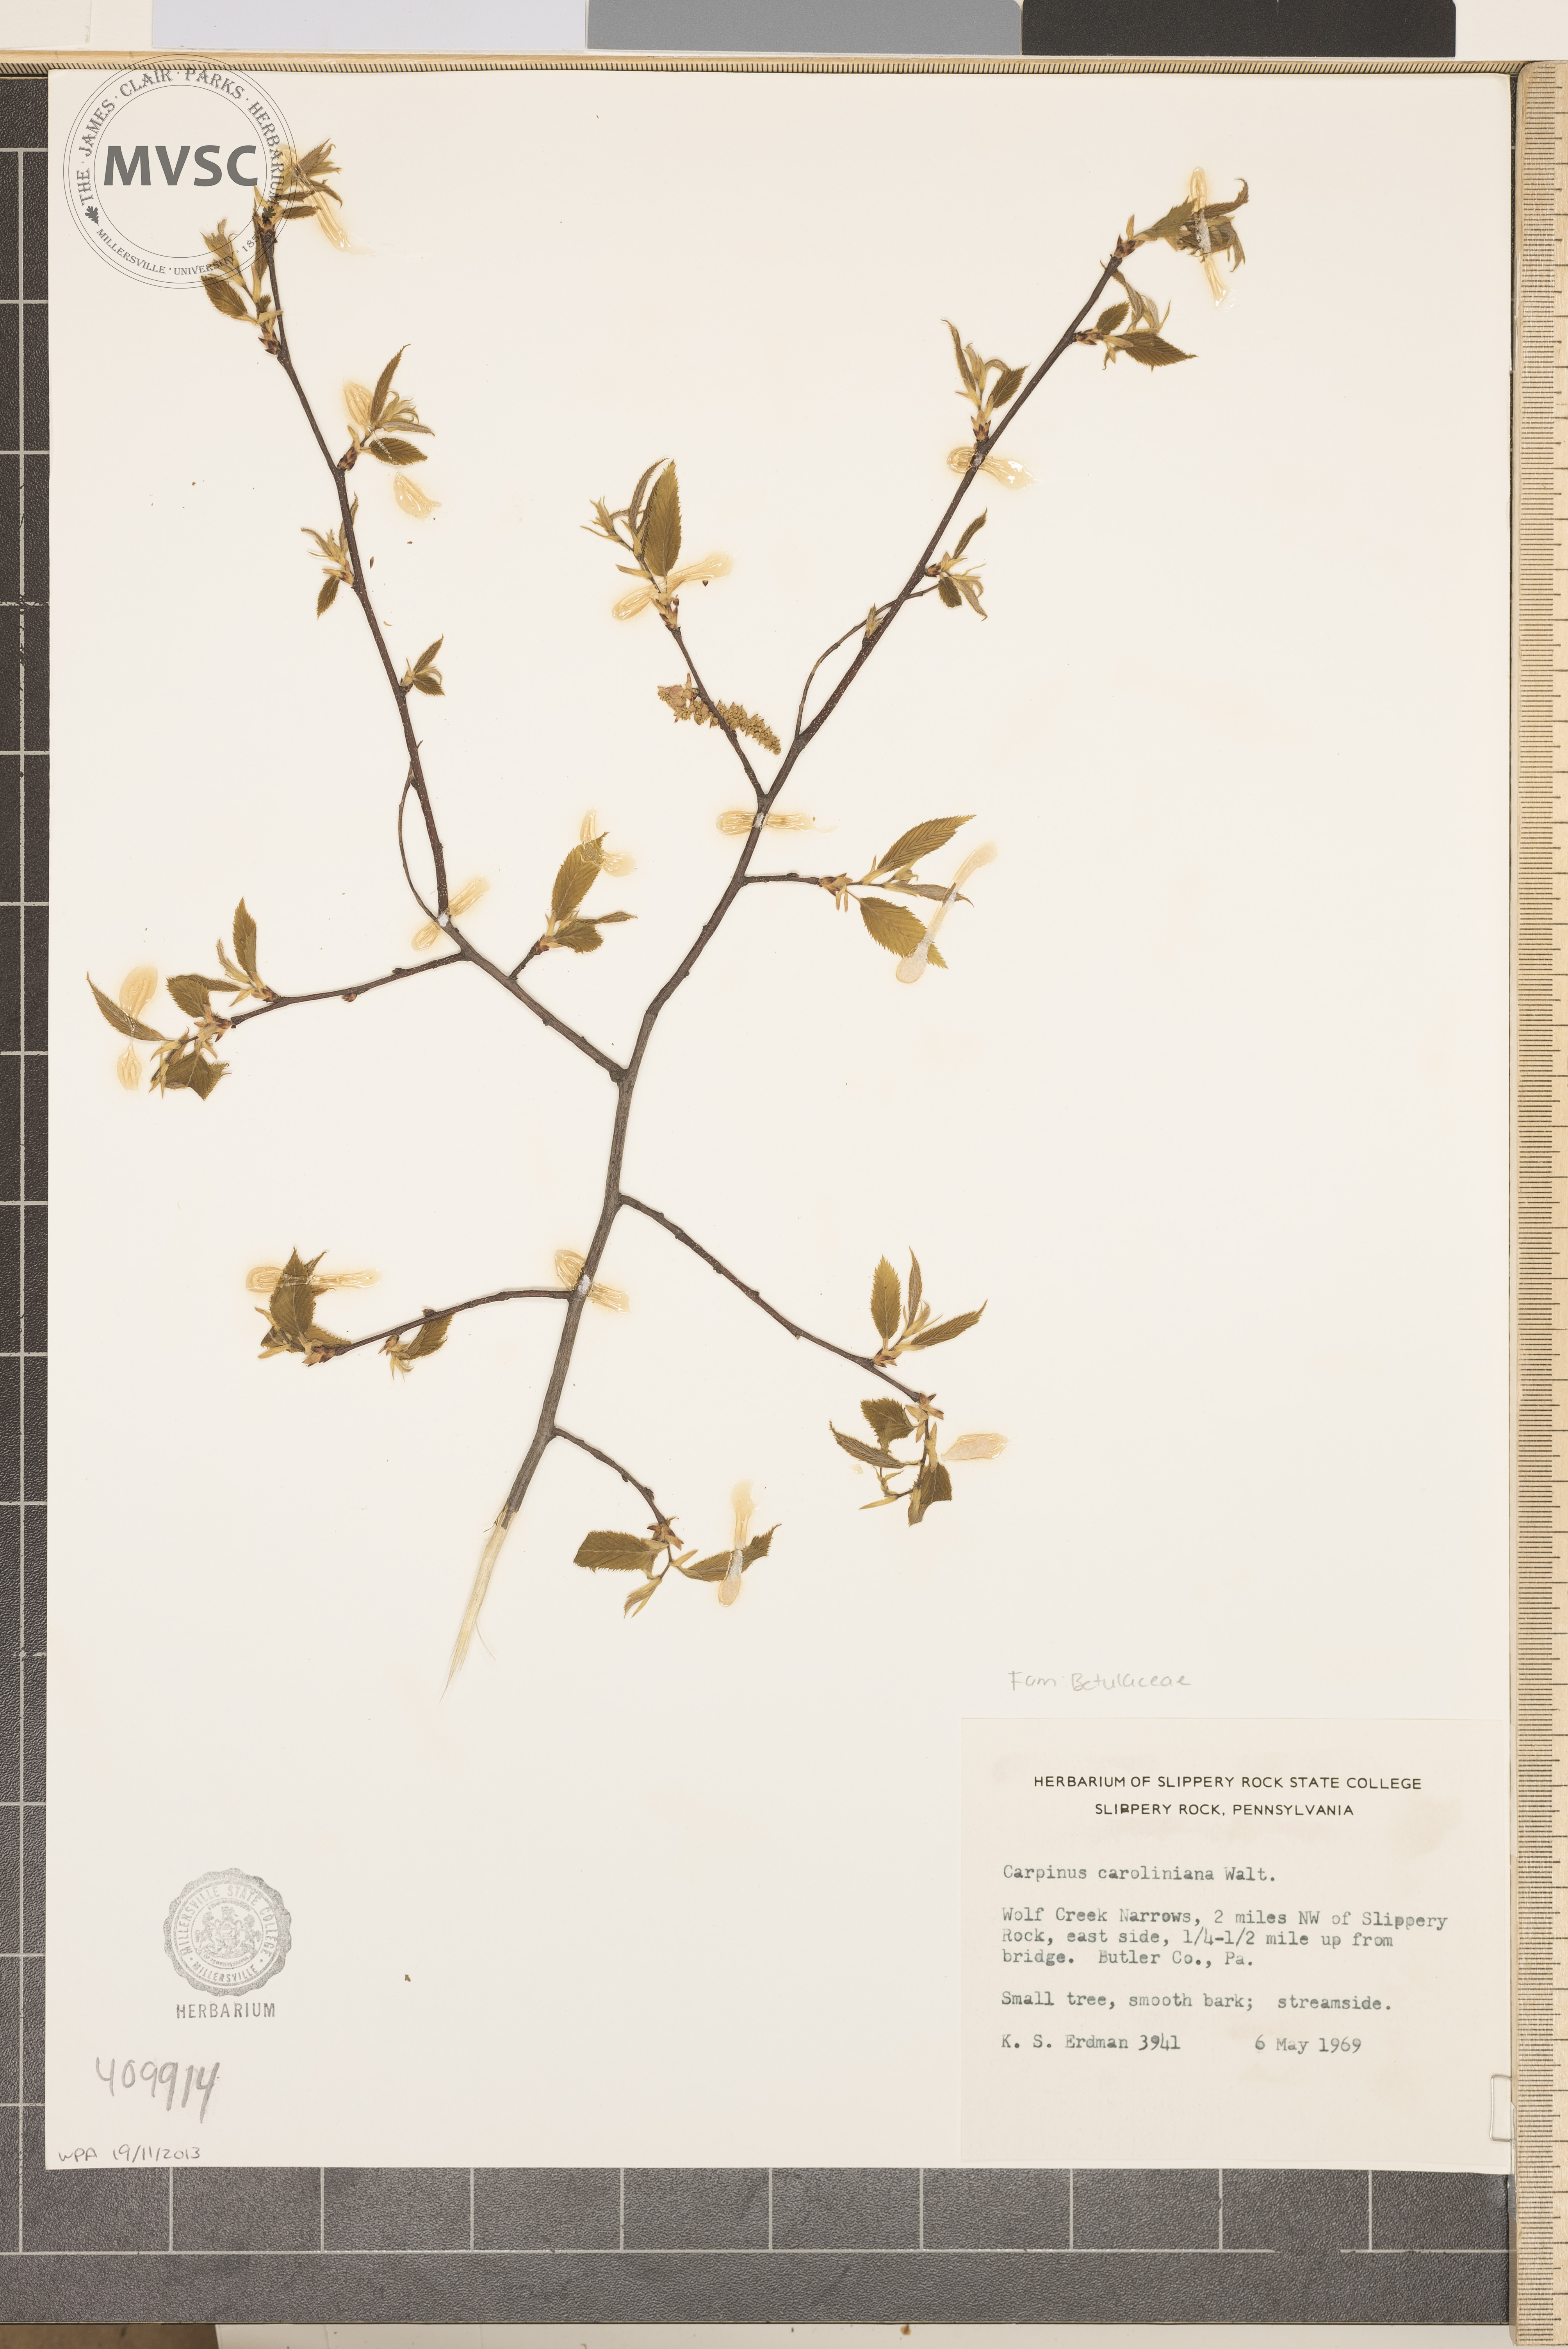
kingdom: Plantae
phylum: Tracheophyta
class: Magnoliopsida
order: Fagales
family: Betulaceae
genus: Carpinus
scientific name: Carpinus caroliniana
